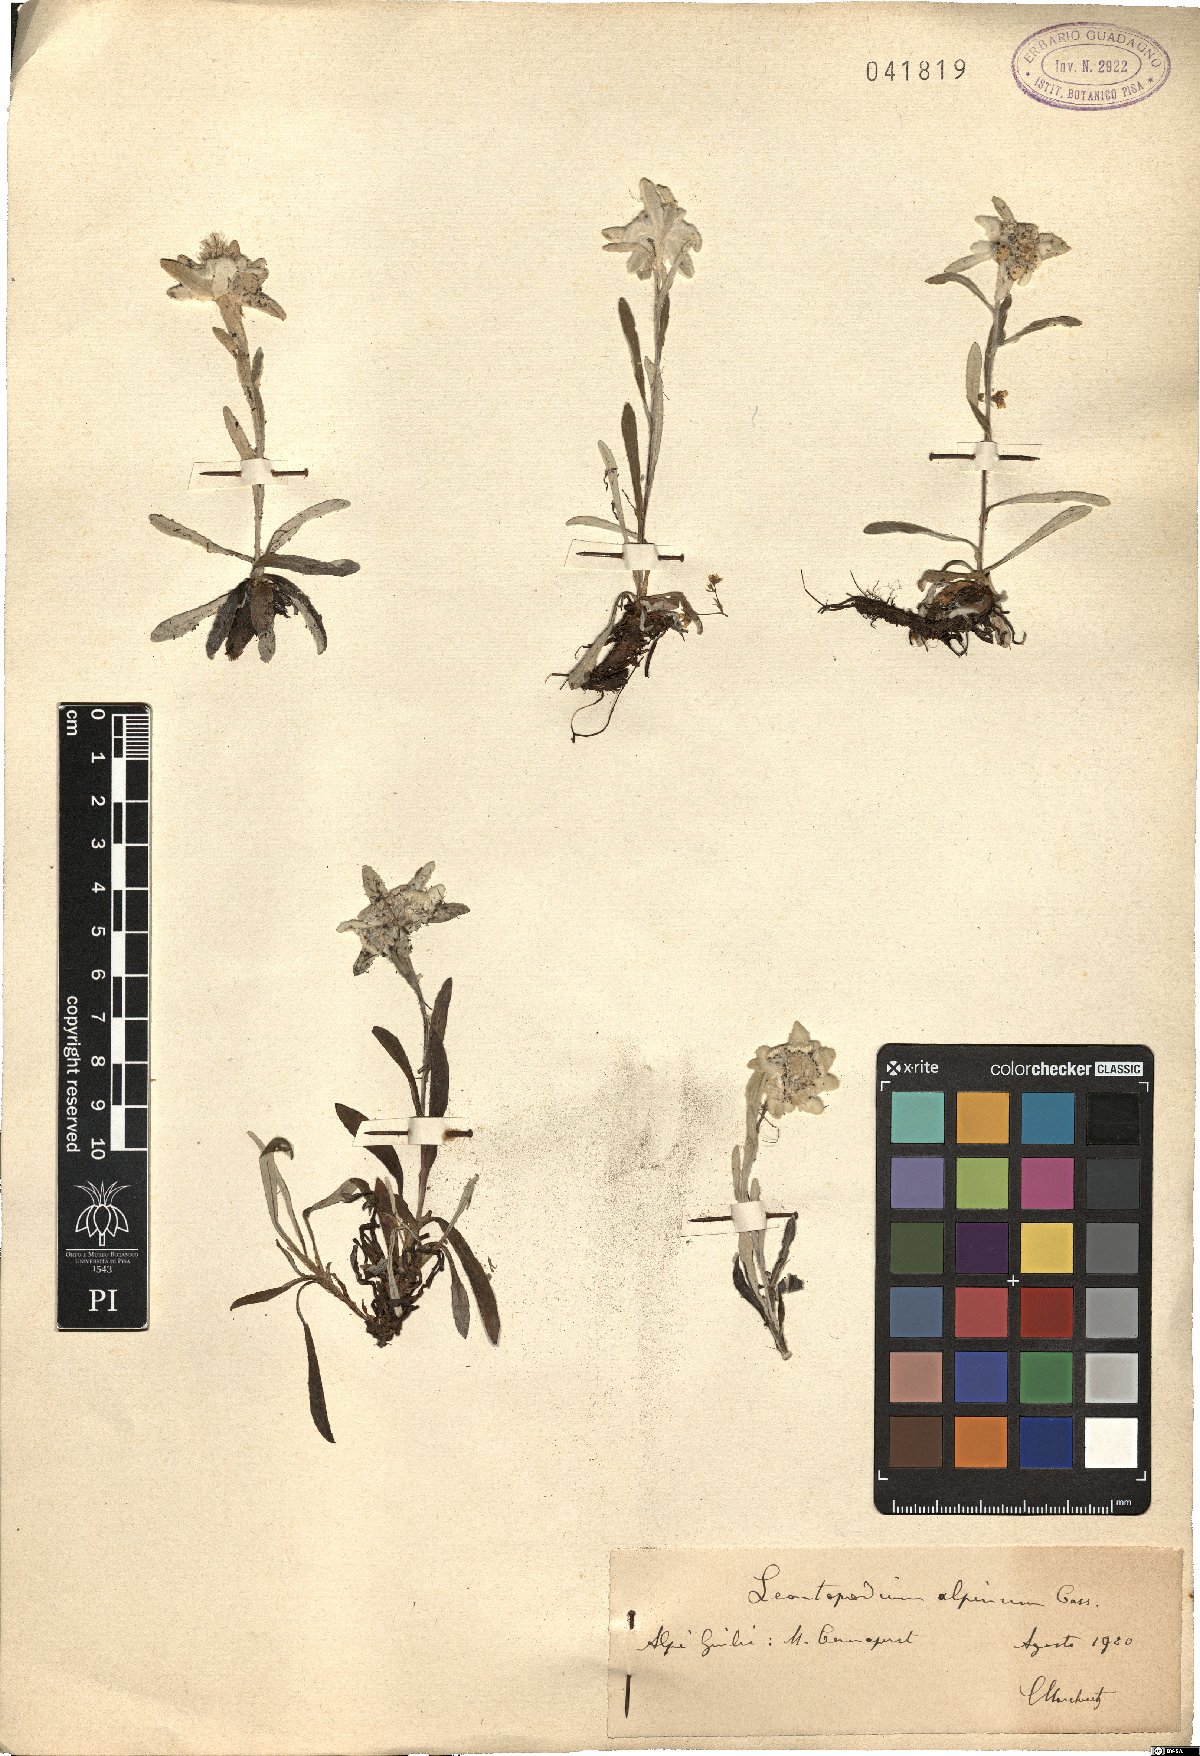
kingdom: Plantae
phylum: Tracheophyta
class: Magnoliopsida
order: Asterales
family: Asteraceae
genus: Leontopodium
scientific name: Leontopodium nivale
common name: Edelweiss
